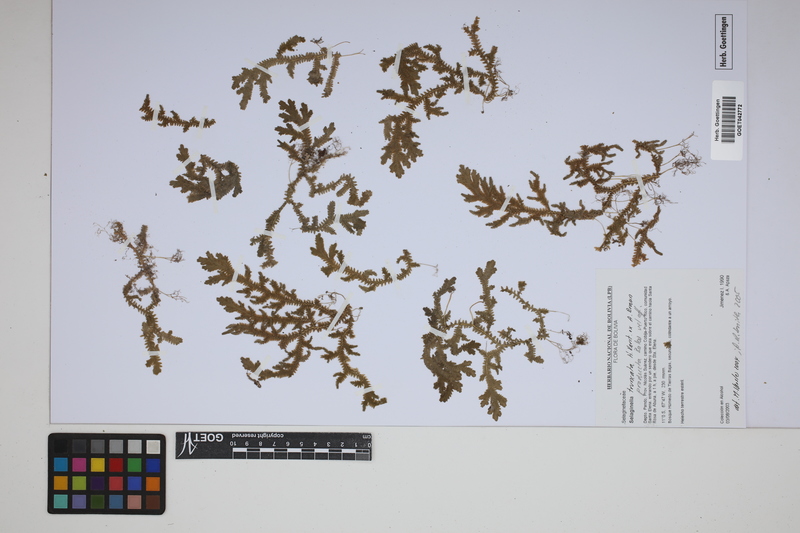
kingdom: Plantae
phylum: Tracheophyta
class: Lycopodiopsida
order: Selaginellales
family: Selaginellaceae
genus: Selaginella
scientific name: Selaginella producta
